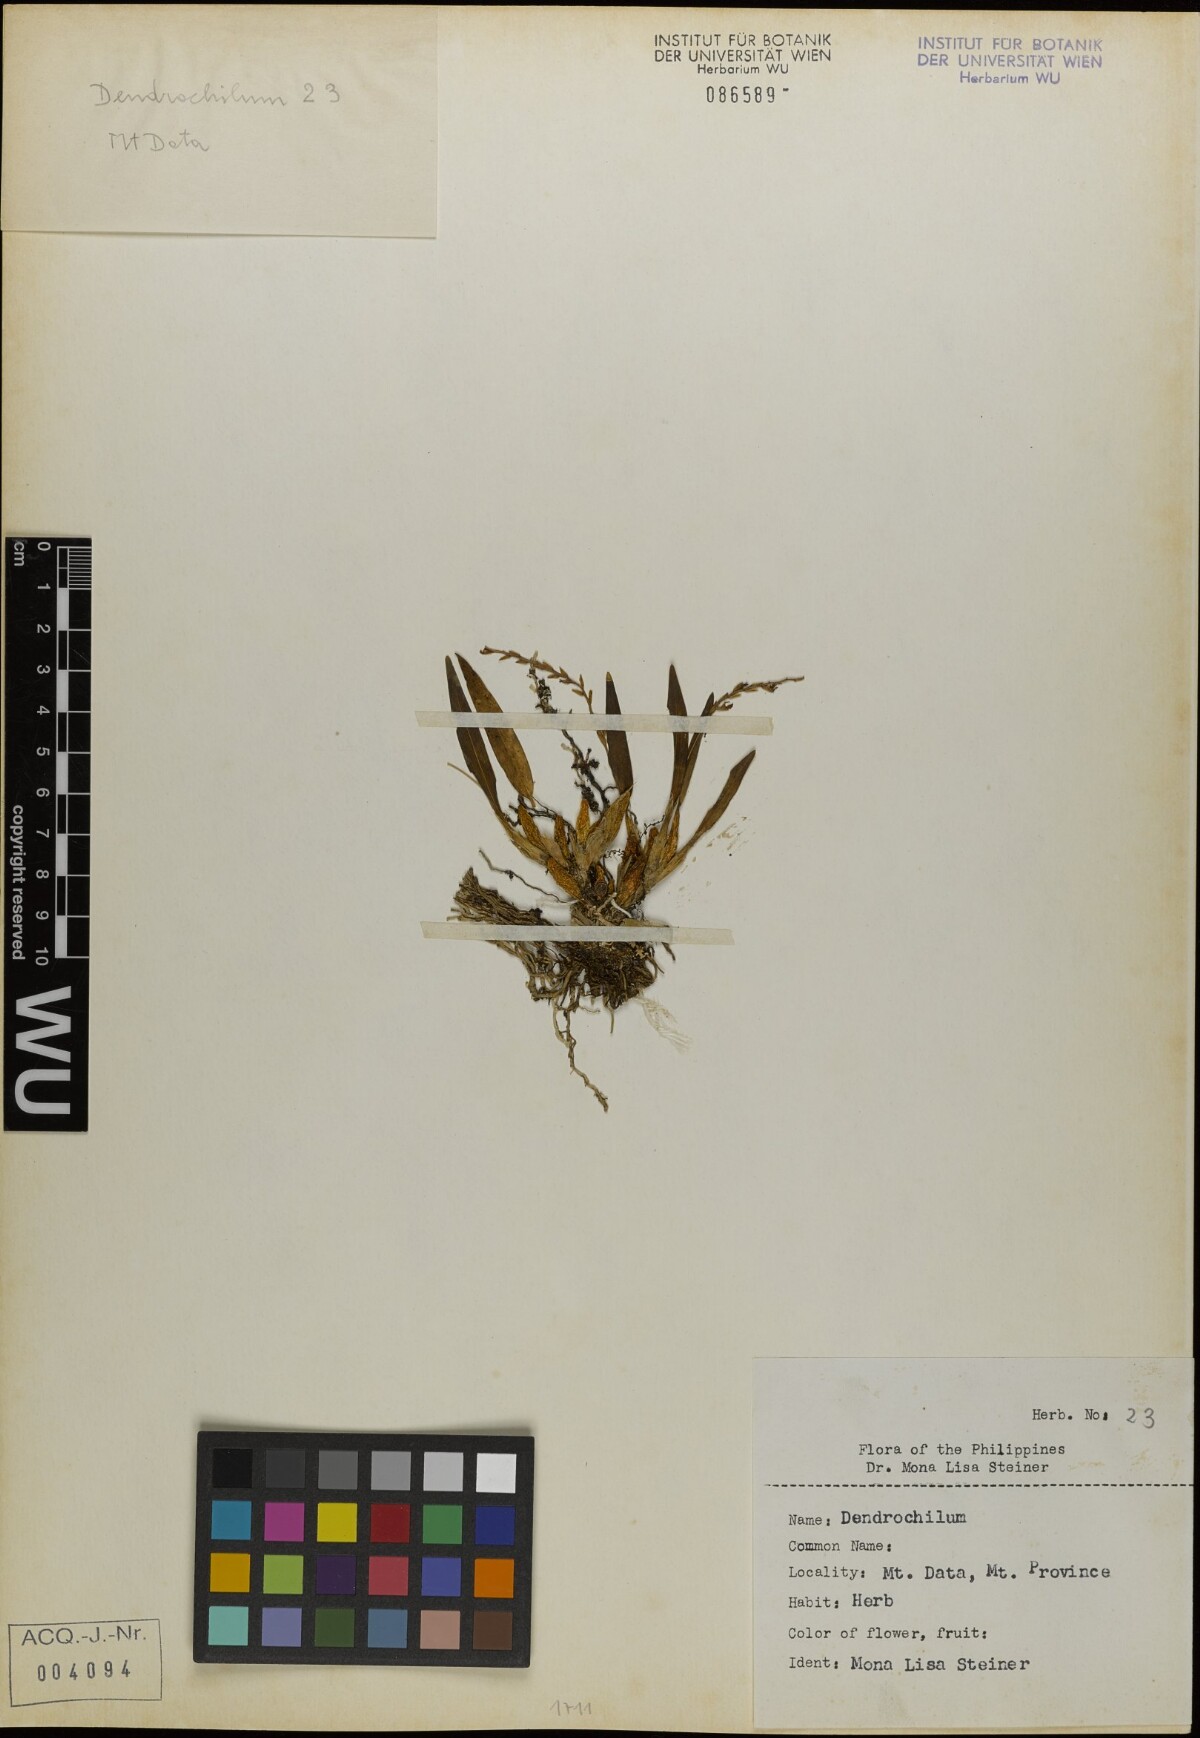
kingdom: Plantae
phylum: Tracheophyta
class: Liliopsida
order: Asparagales
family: Orchidaceae
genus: Coelogyne
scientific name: Coelogyne
